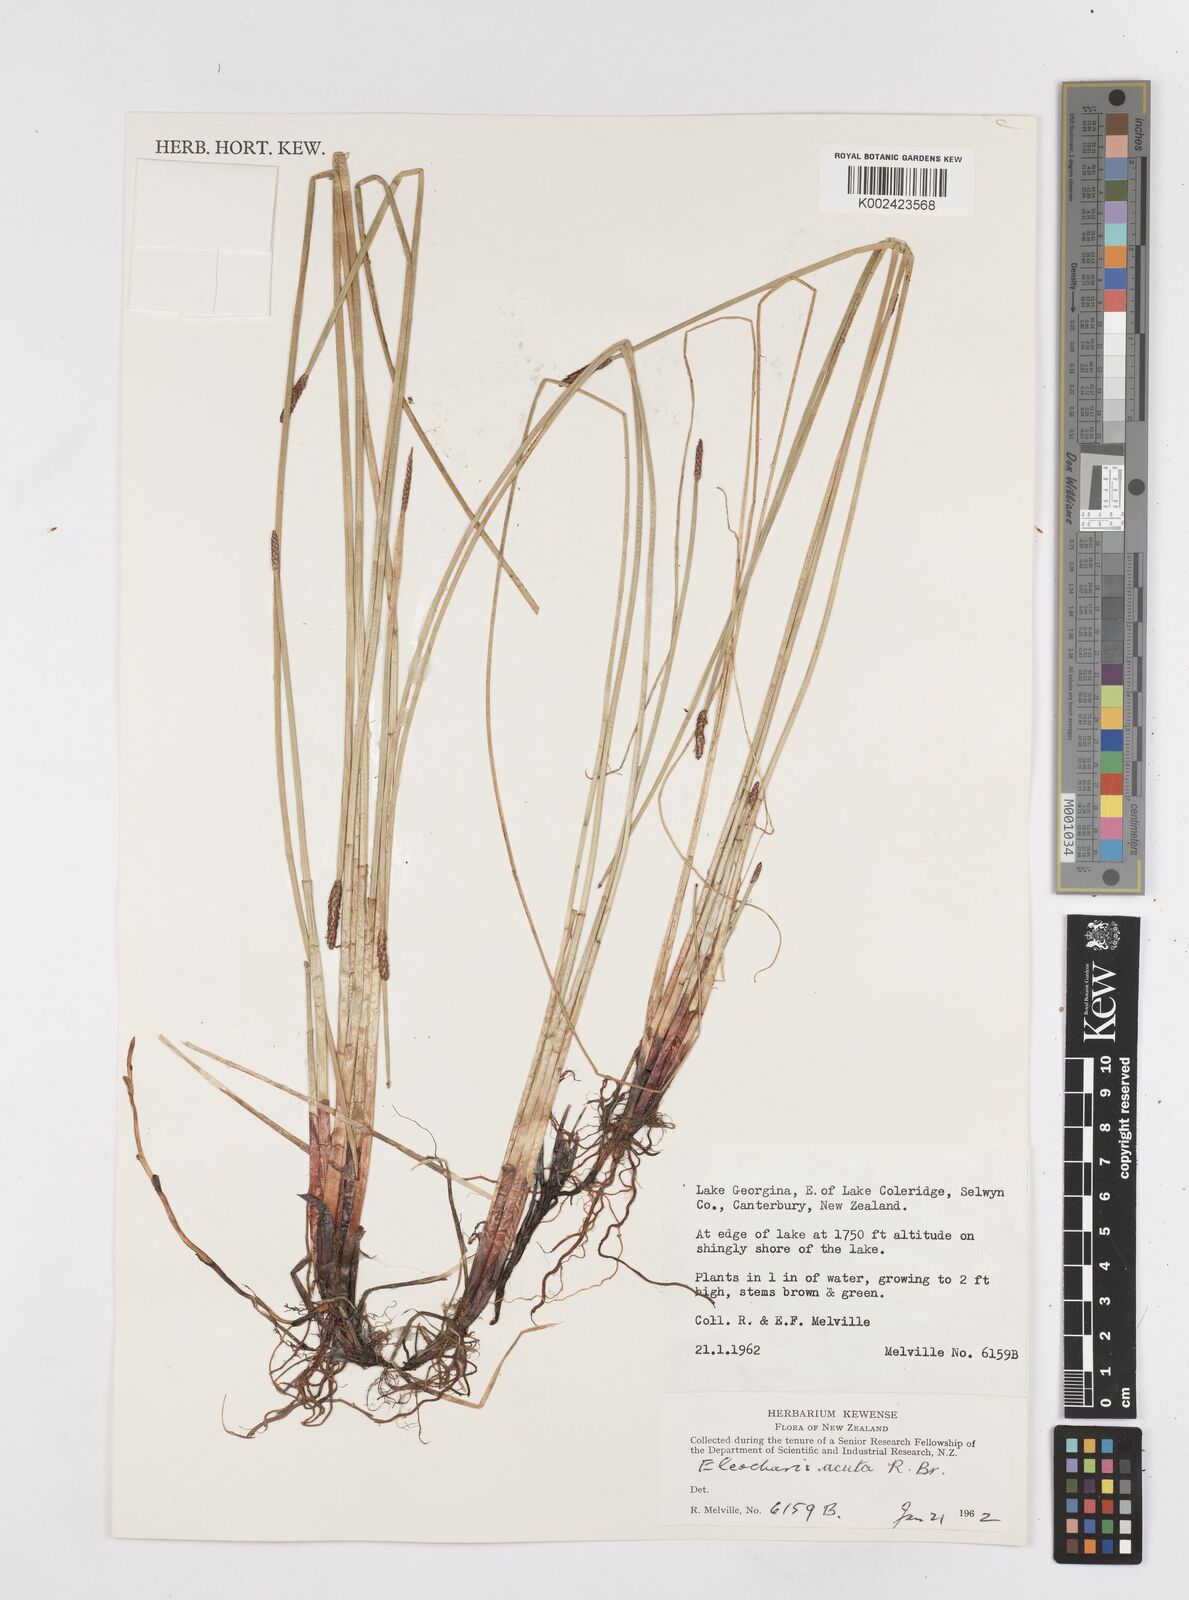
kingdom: Plantae
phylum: Tracheophyta
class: Liliopsida
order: Poales
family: Cyperaceae
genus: Eleocharis
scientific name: Eleocharis acuta
